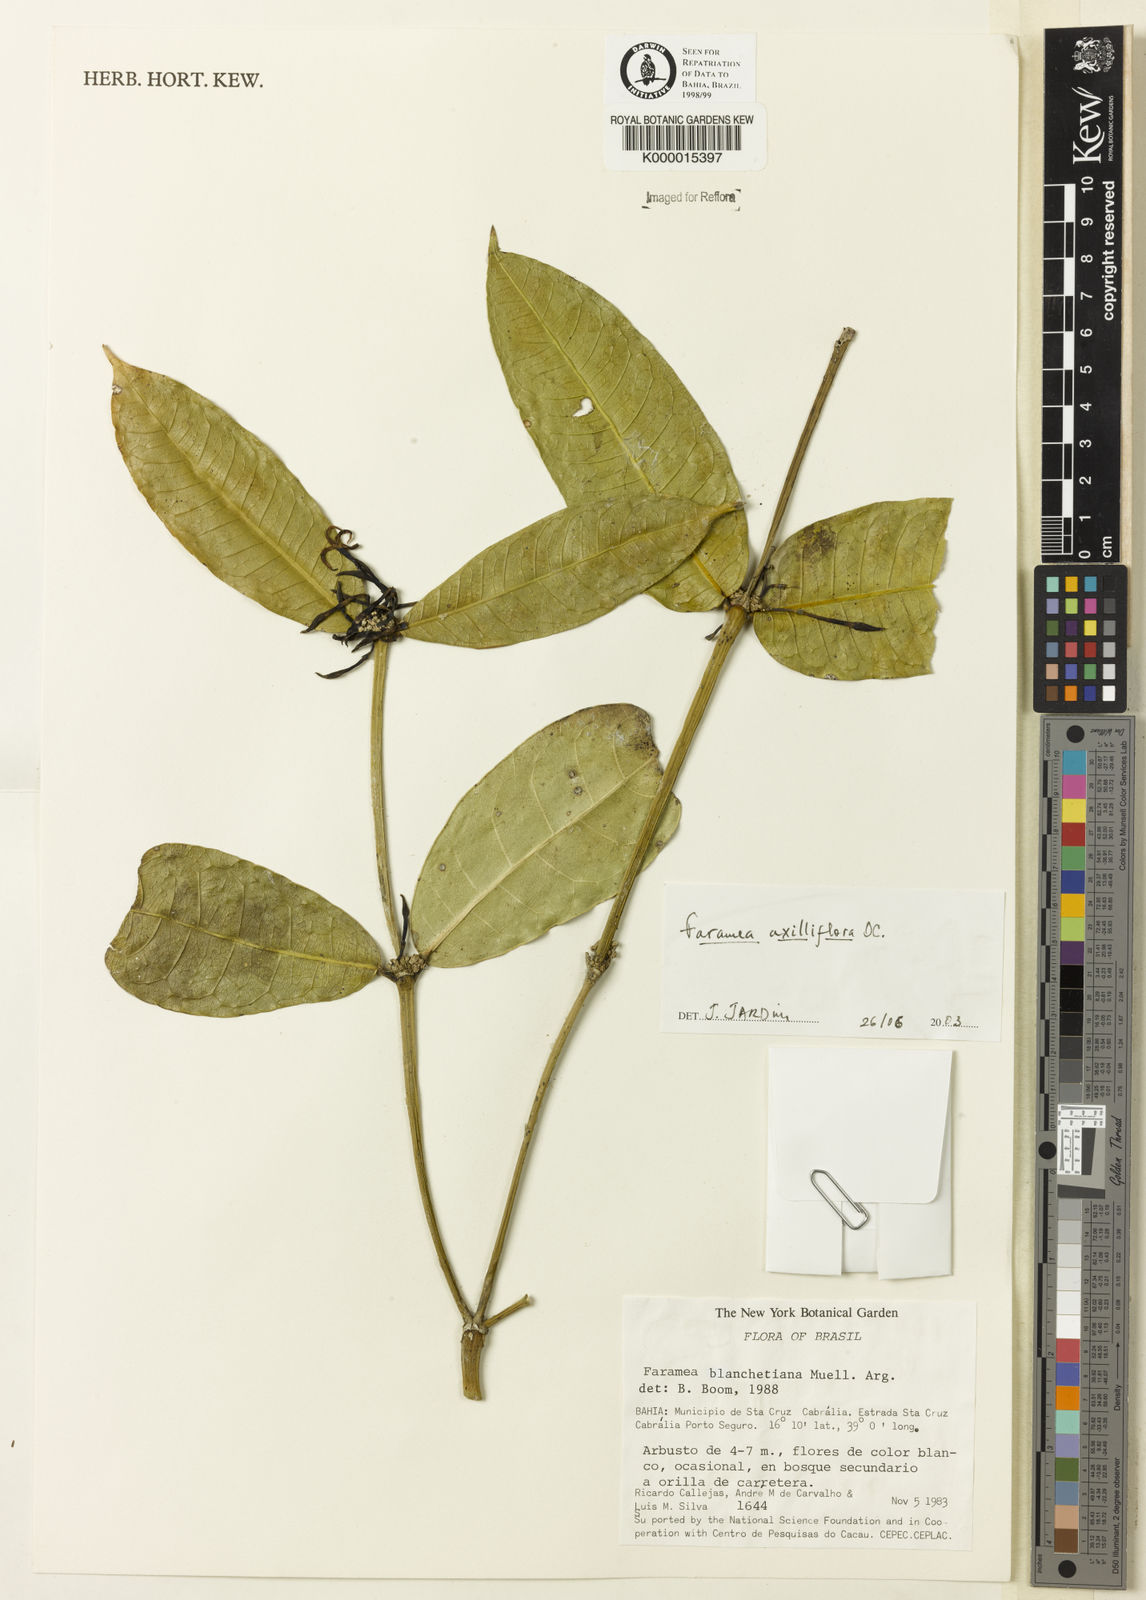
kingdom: Plantae
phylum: Tracheophyta
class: Magnoliopsida
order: Gentianales
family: Rubiaceae
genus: Faramea
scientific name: Faramea axilliflora
